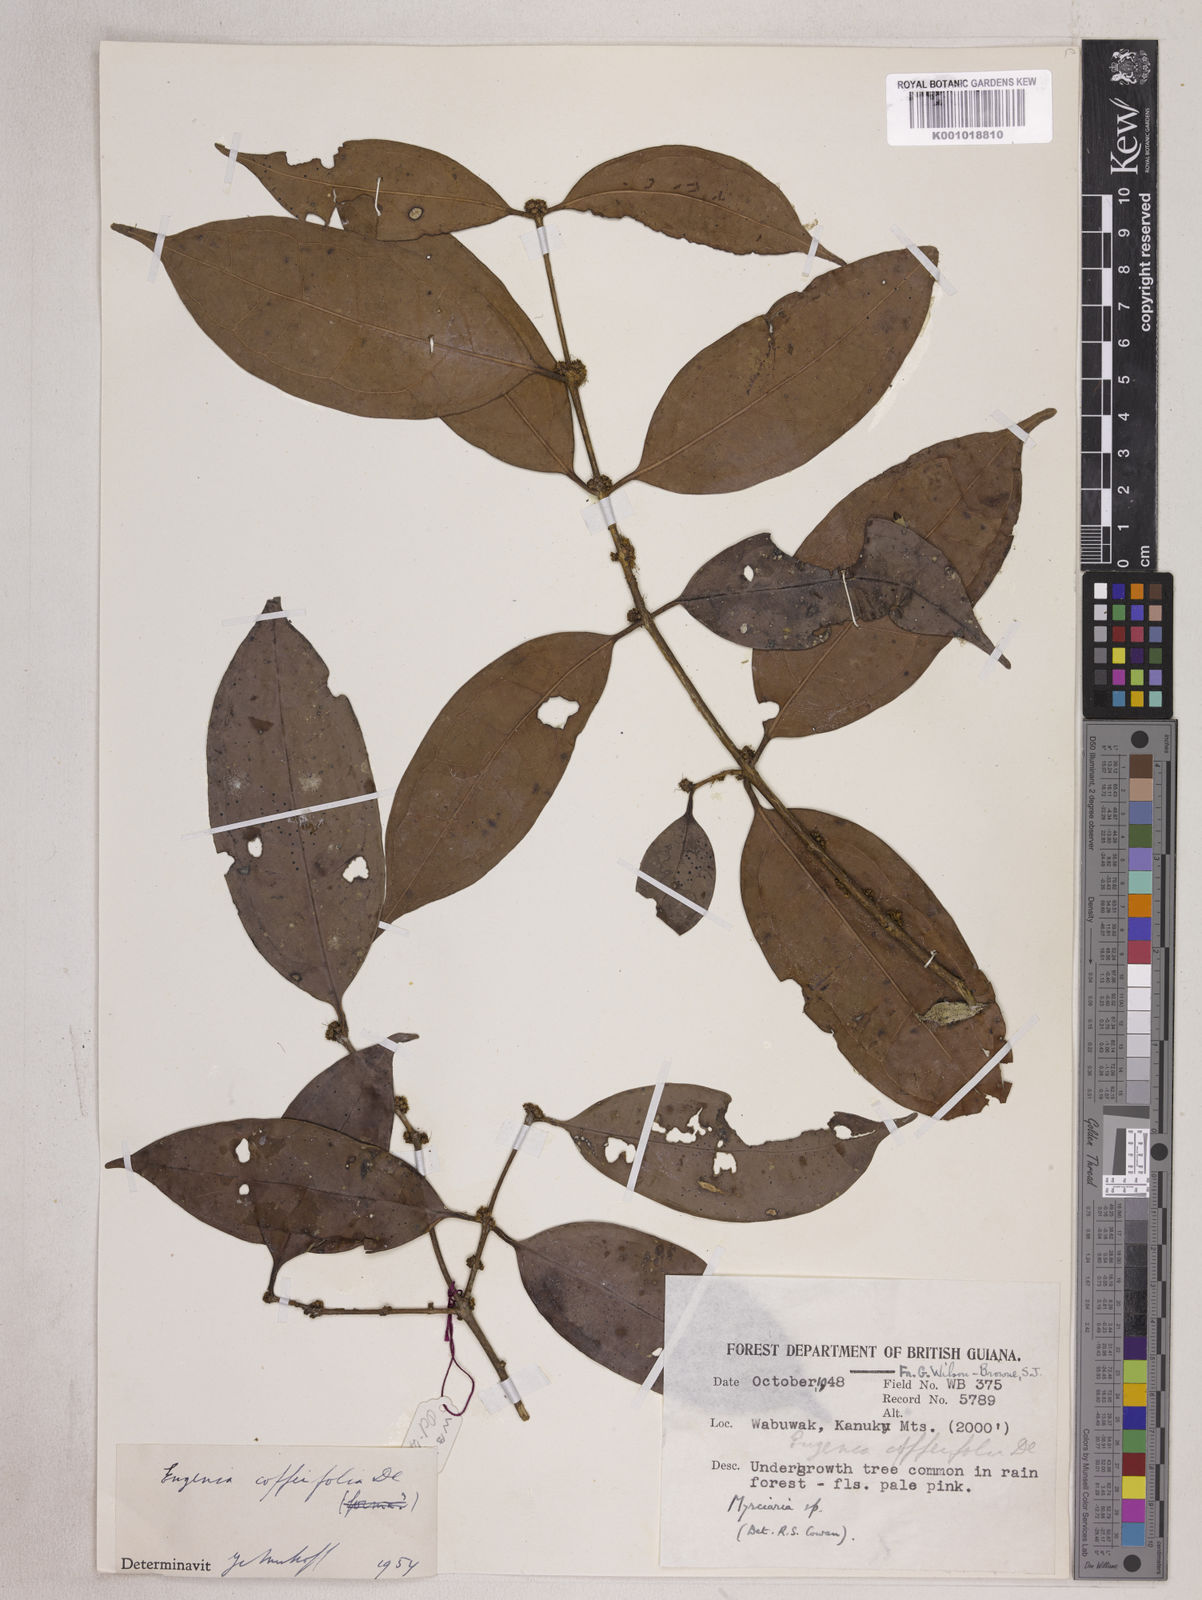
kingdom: Plantae
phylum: Tracheophyta
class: Magnoliopsida
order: Myrtales
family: Myrtaceae
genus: Eugenia
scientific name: Eugenia coffeifolia
